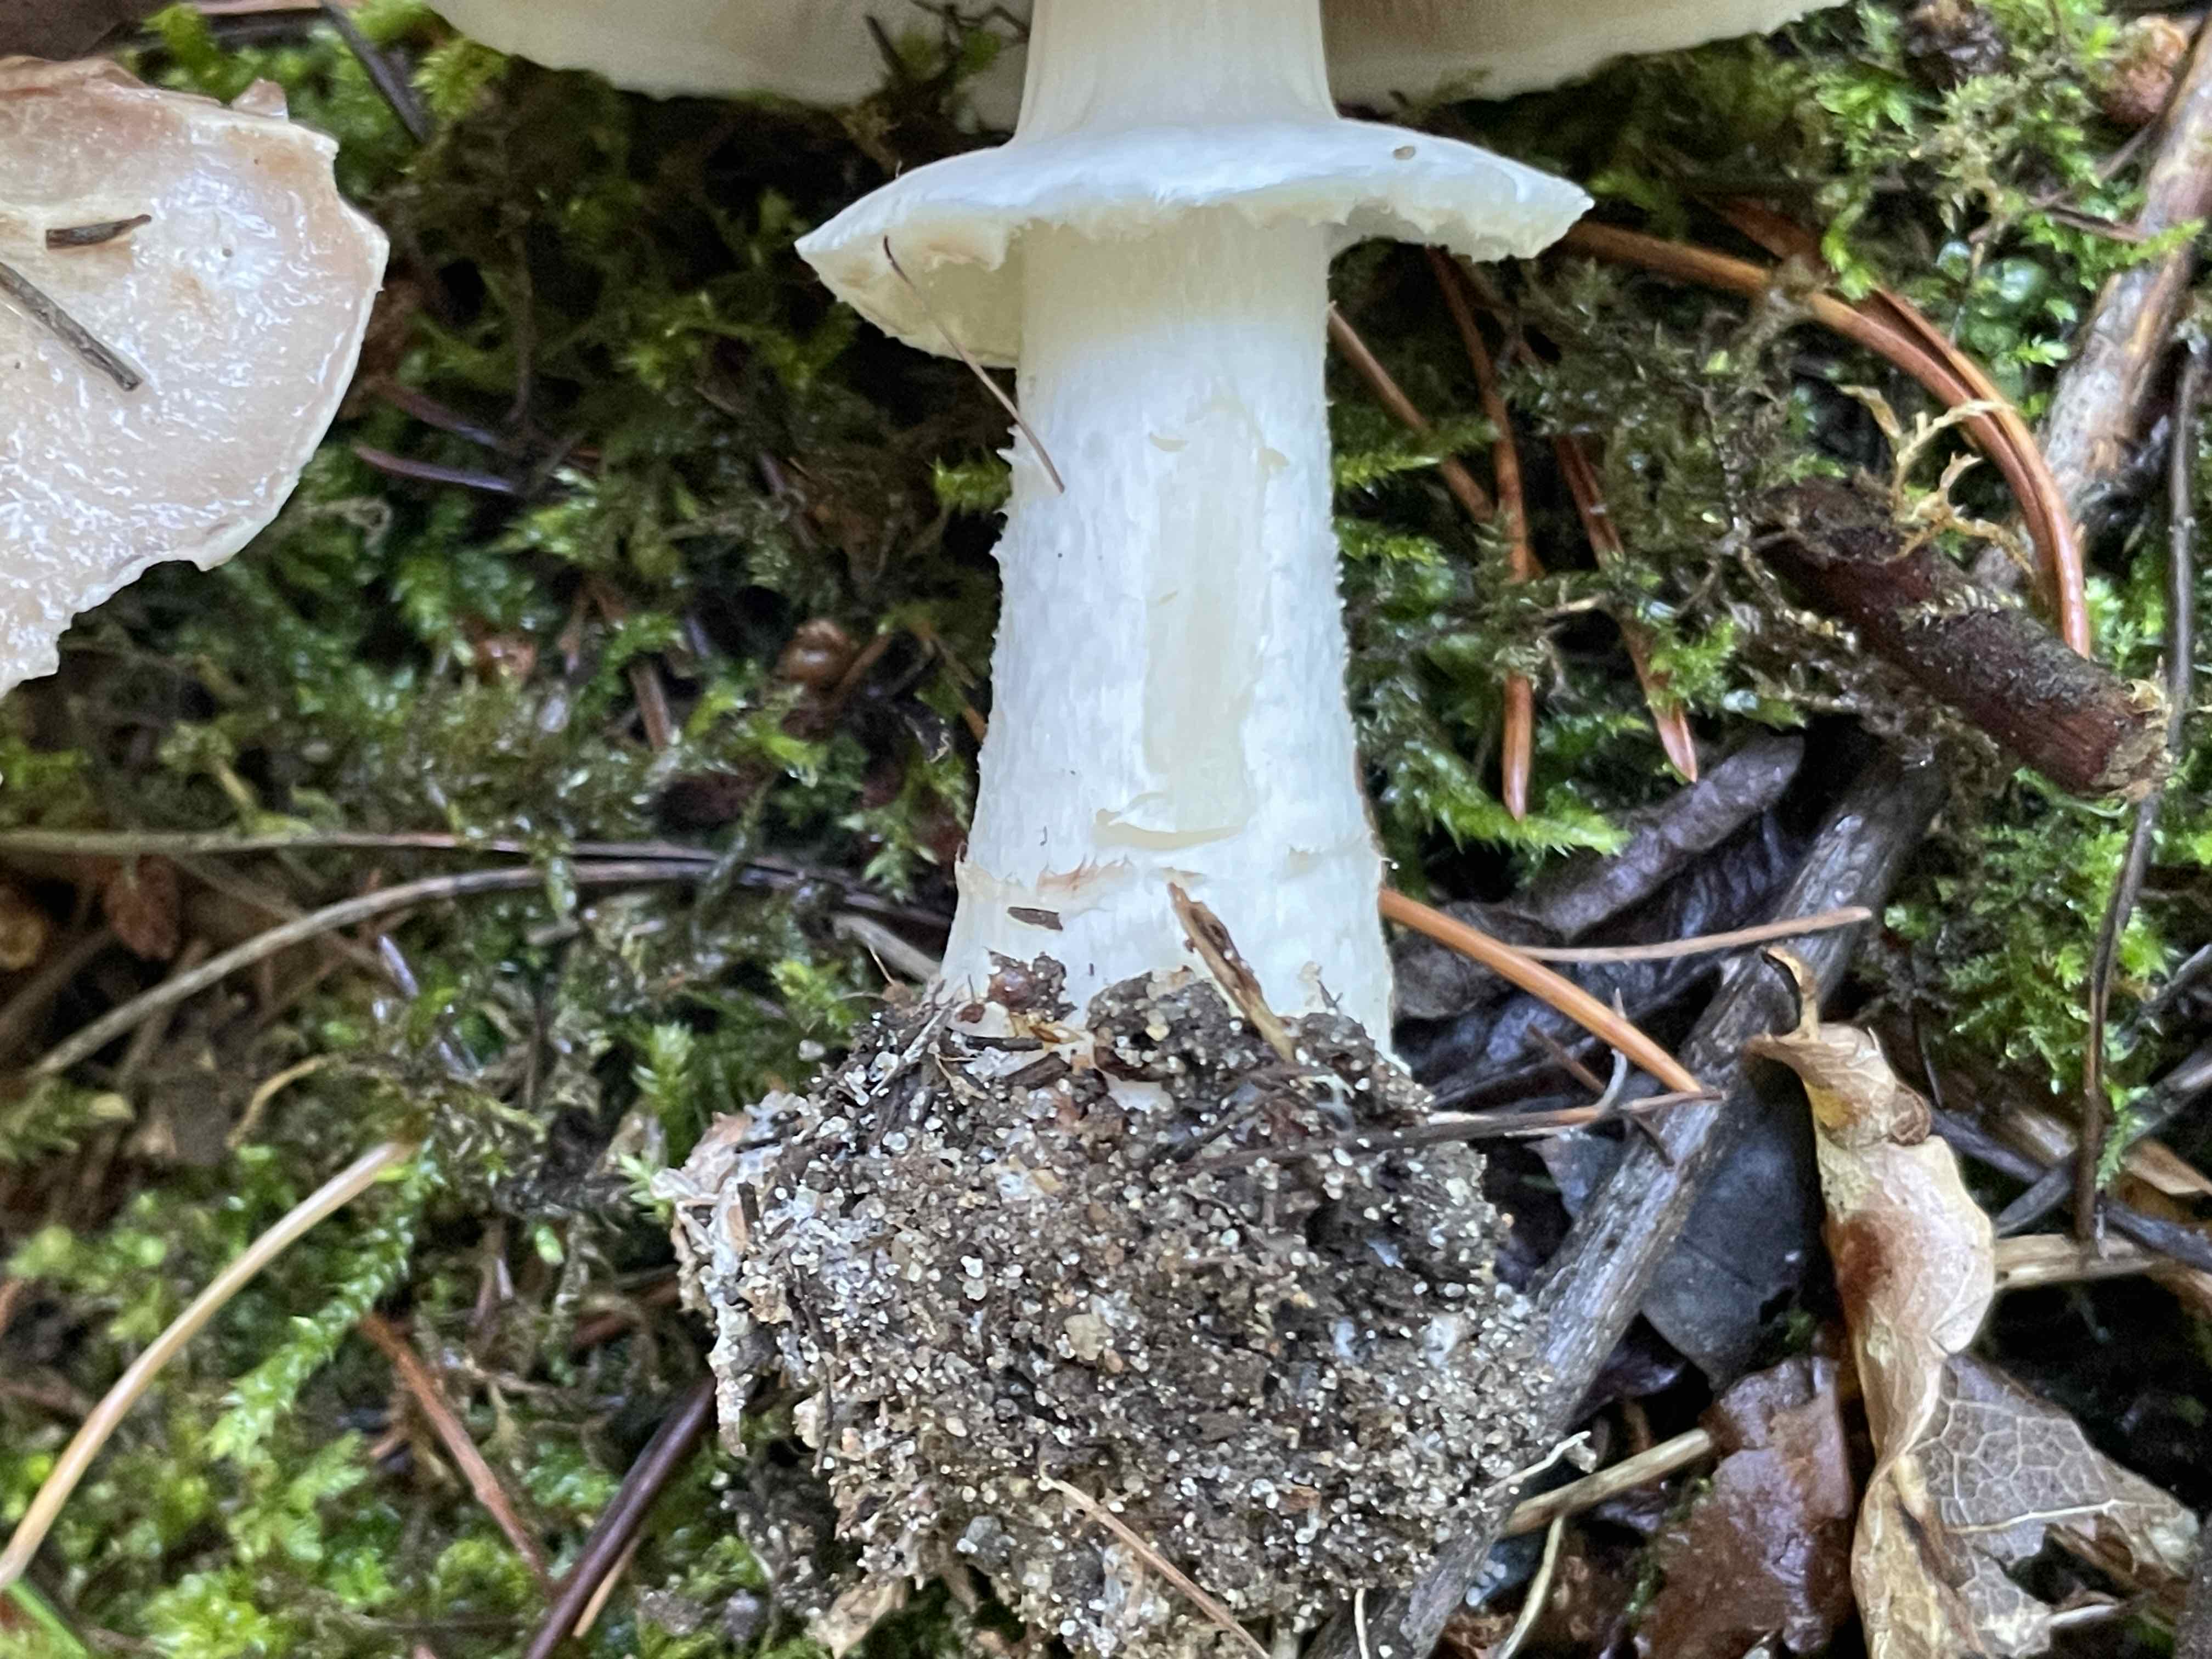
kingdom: Fungi
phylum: Basidiomycota
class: Agaricomycetes
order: Agaricales
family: Agaricaceae
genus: Agaricus
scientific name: Agaricus impudicus
